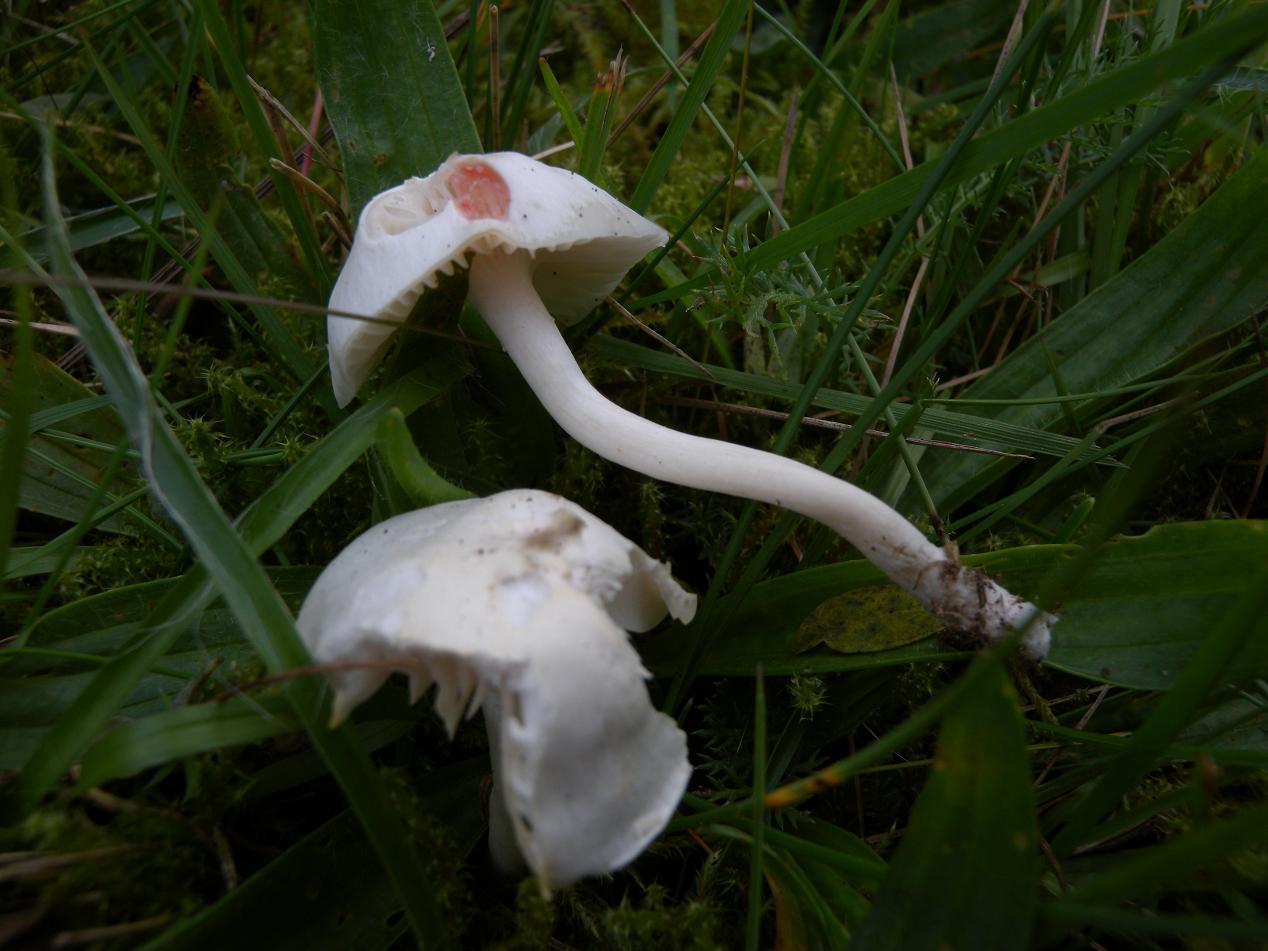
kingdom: Fungi
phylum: Basidiomycota
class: Agaricomycetes
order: Agaricales
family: Hygrophoraceae
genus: Cuphophyllus
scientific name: Cuphophyllus virgineus
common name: snehvid vokshat
